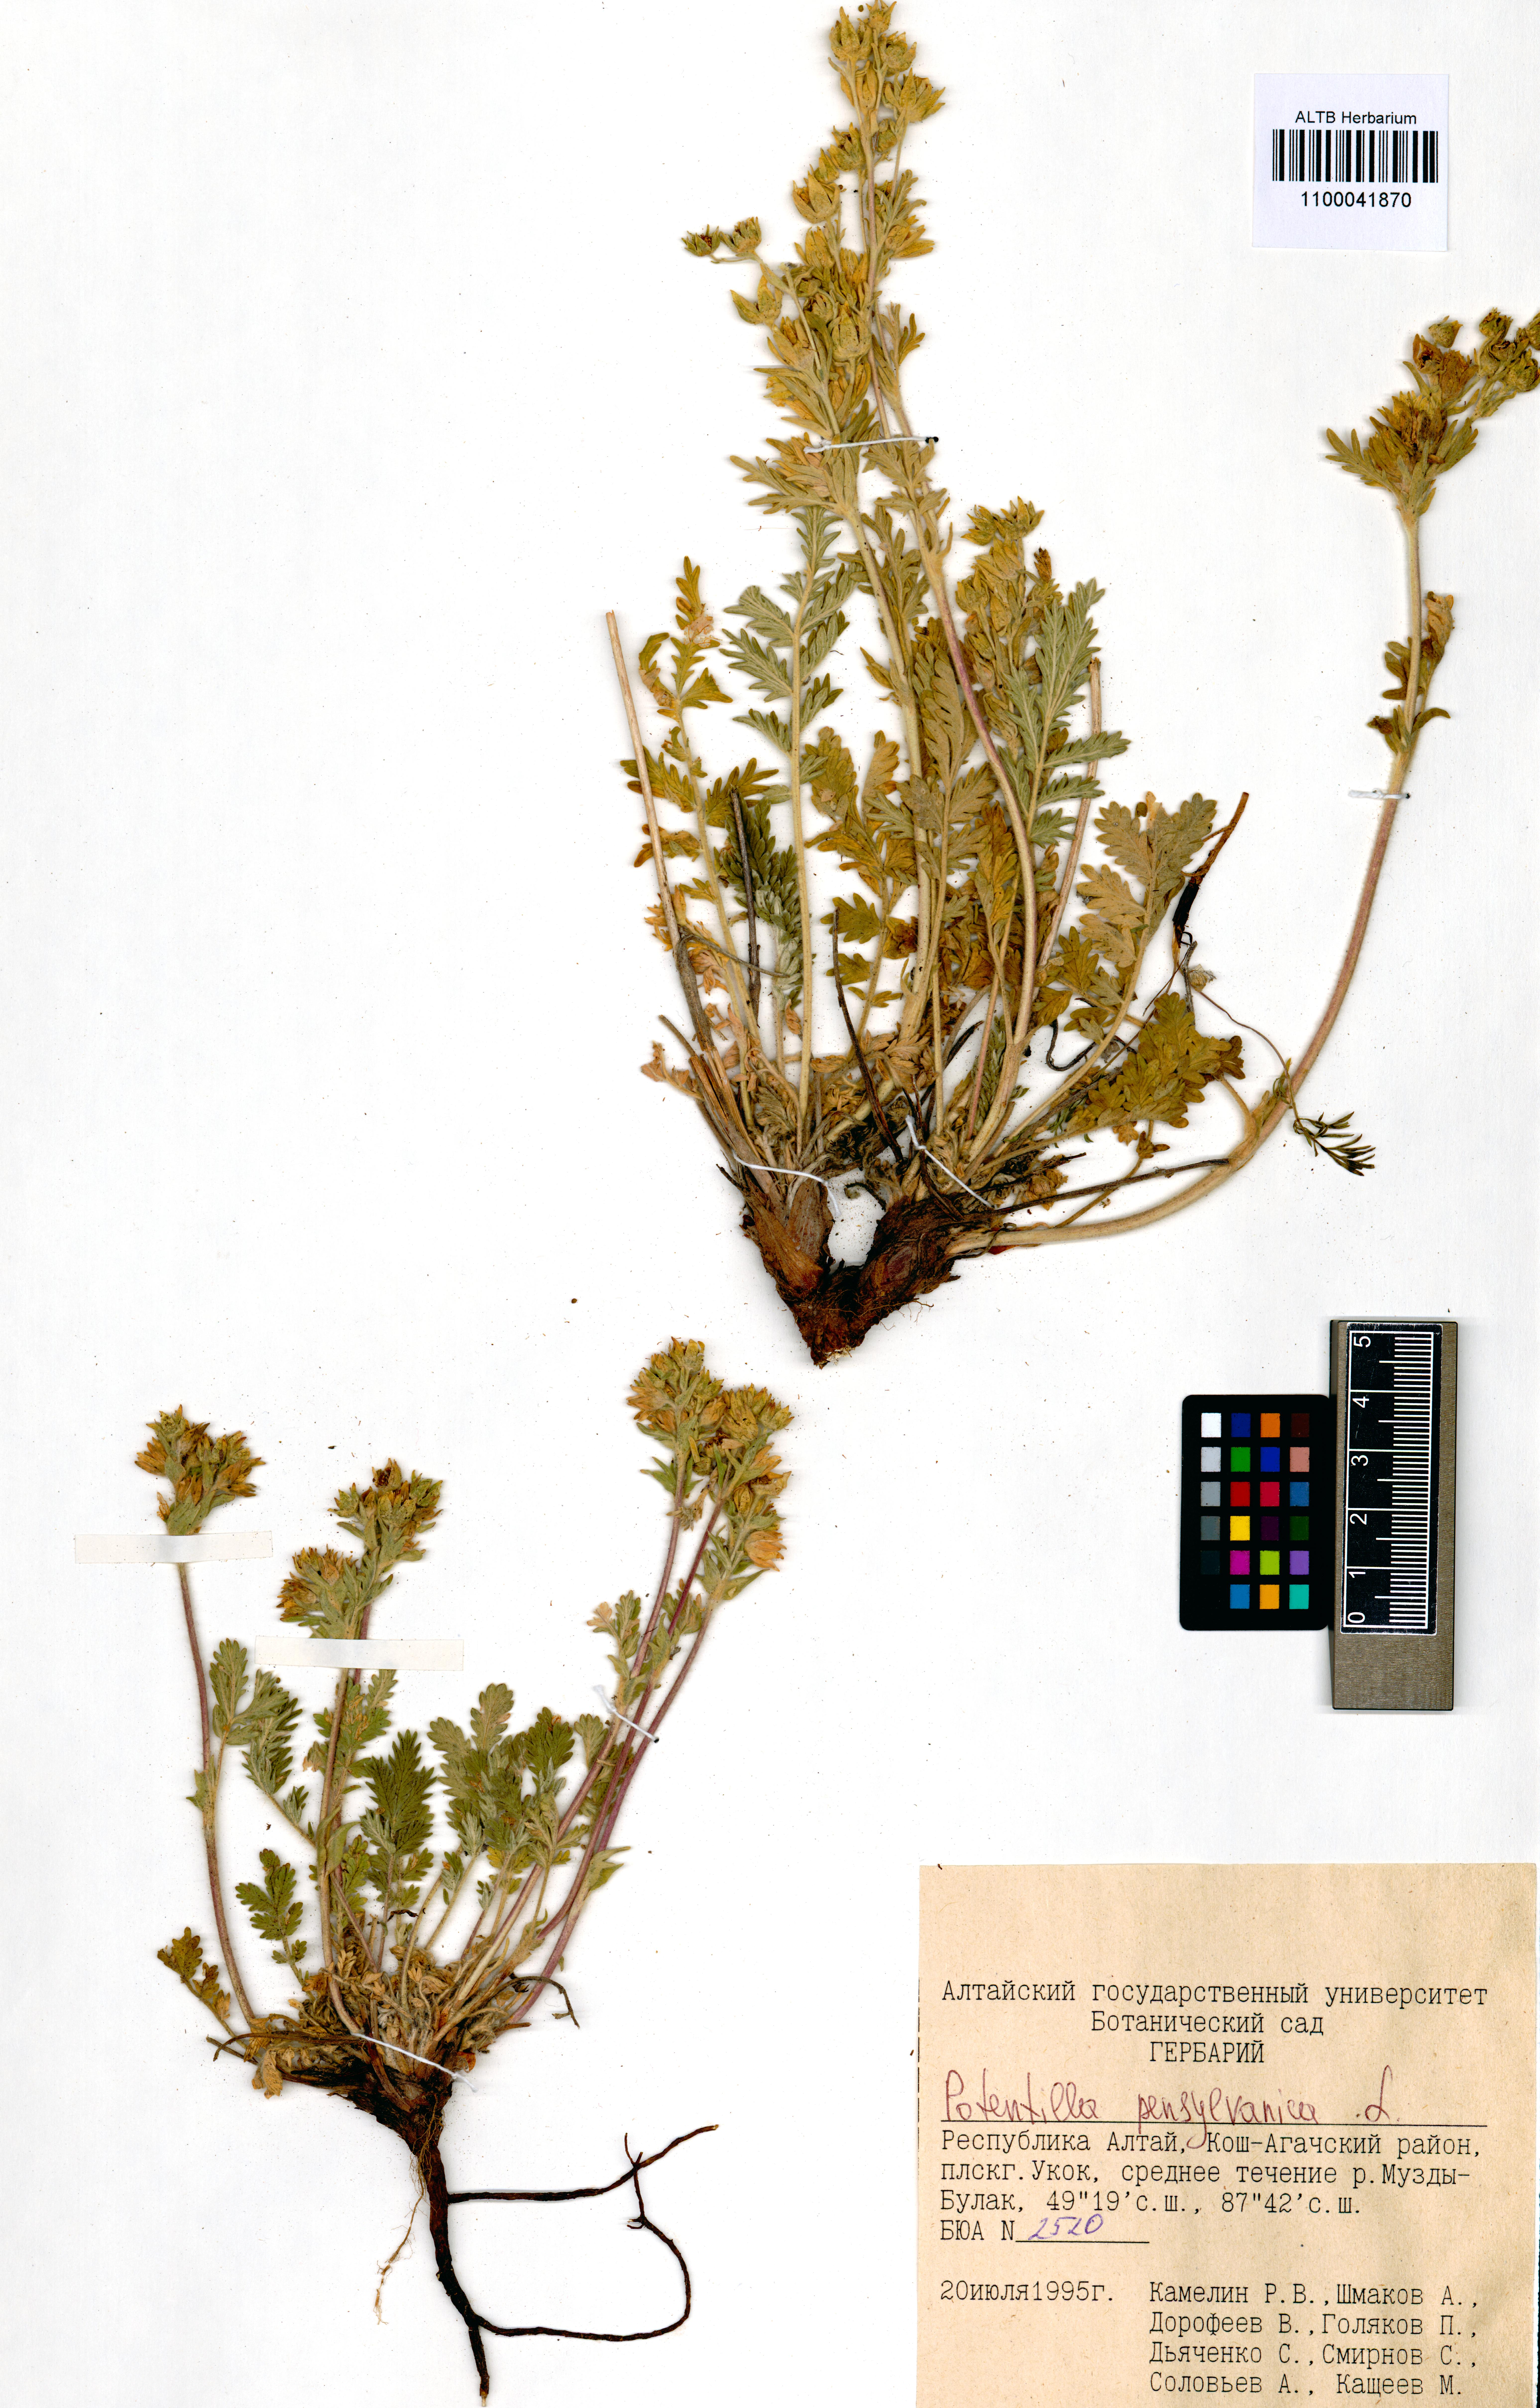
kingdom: Plantae
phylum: Tracheophyta
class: Magnoliopsida
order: Rosales
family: Rosaceae
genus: Potentilla
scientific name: Potentilla pensylvanica
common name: Pennsylvania cinquefoil
